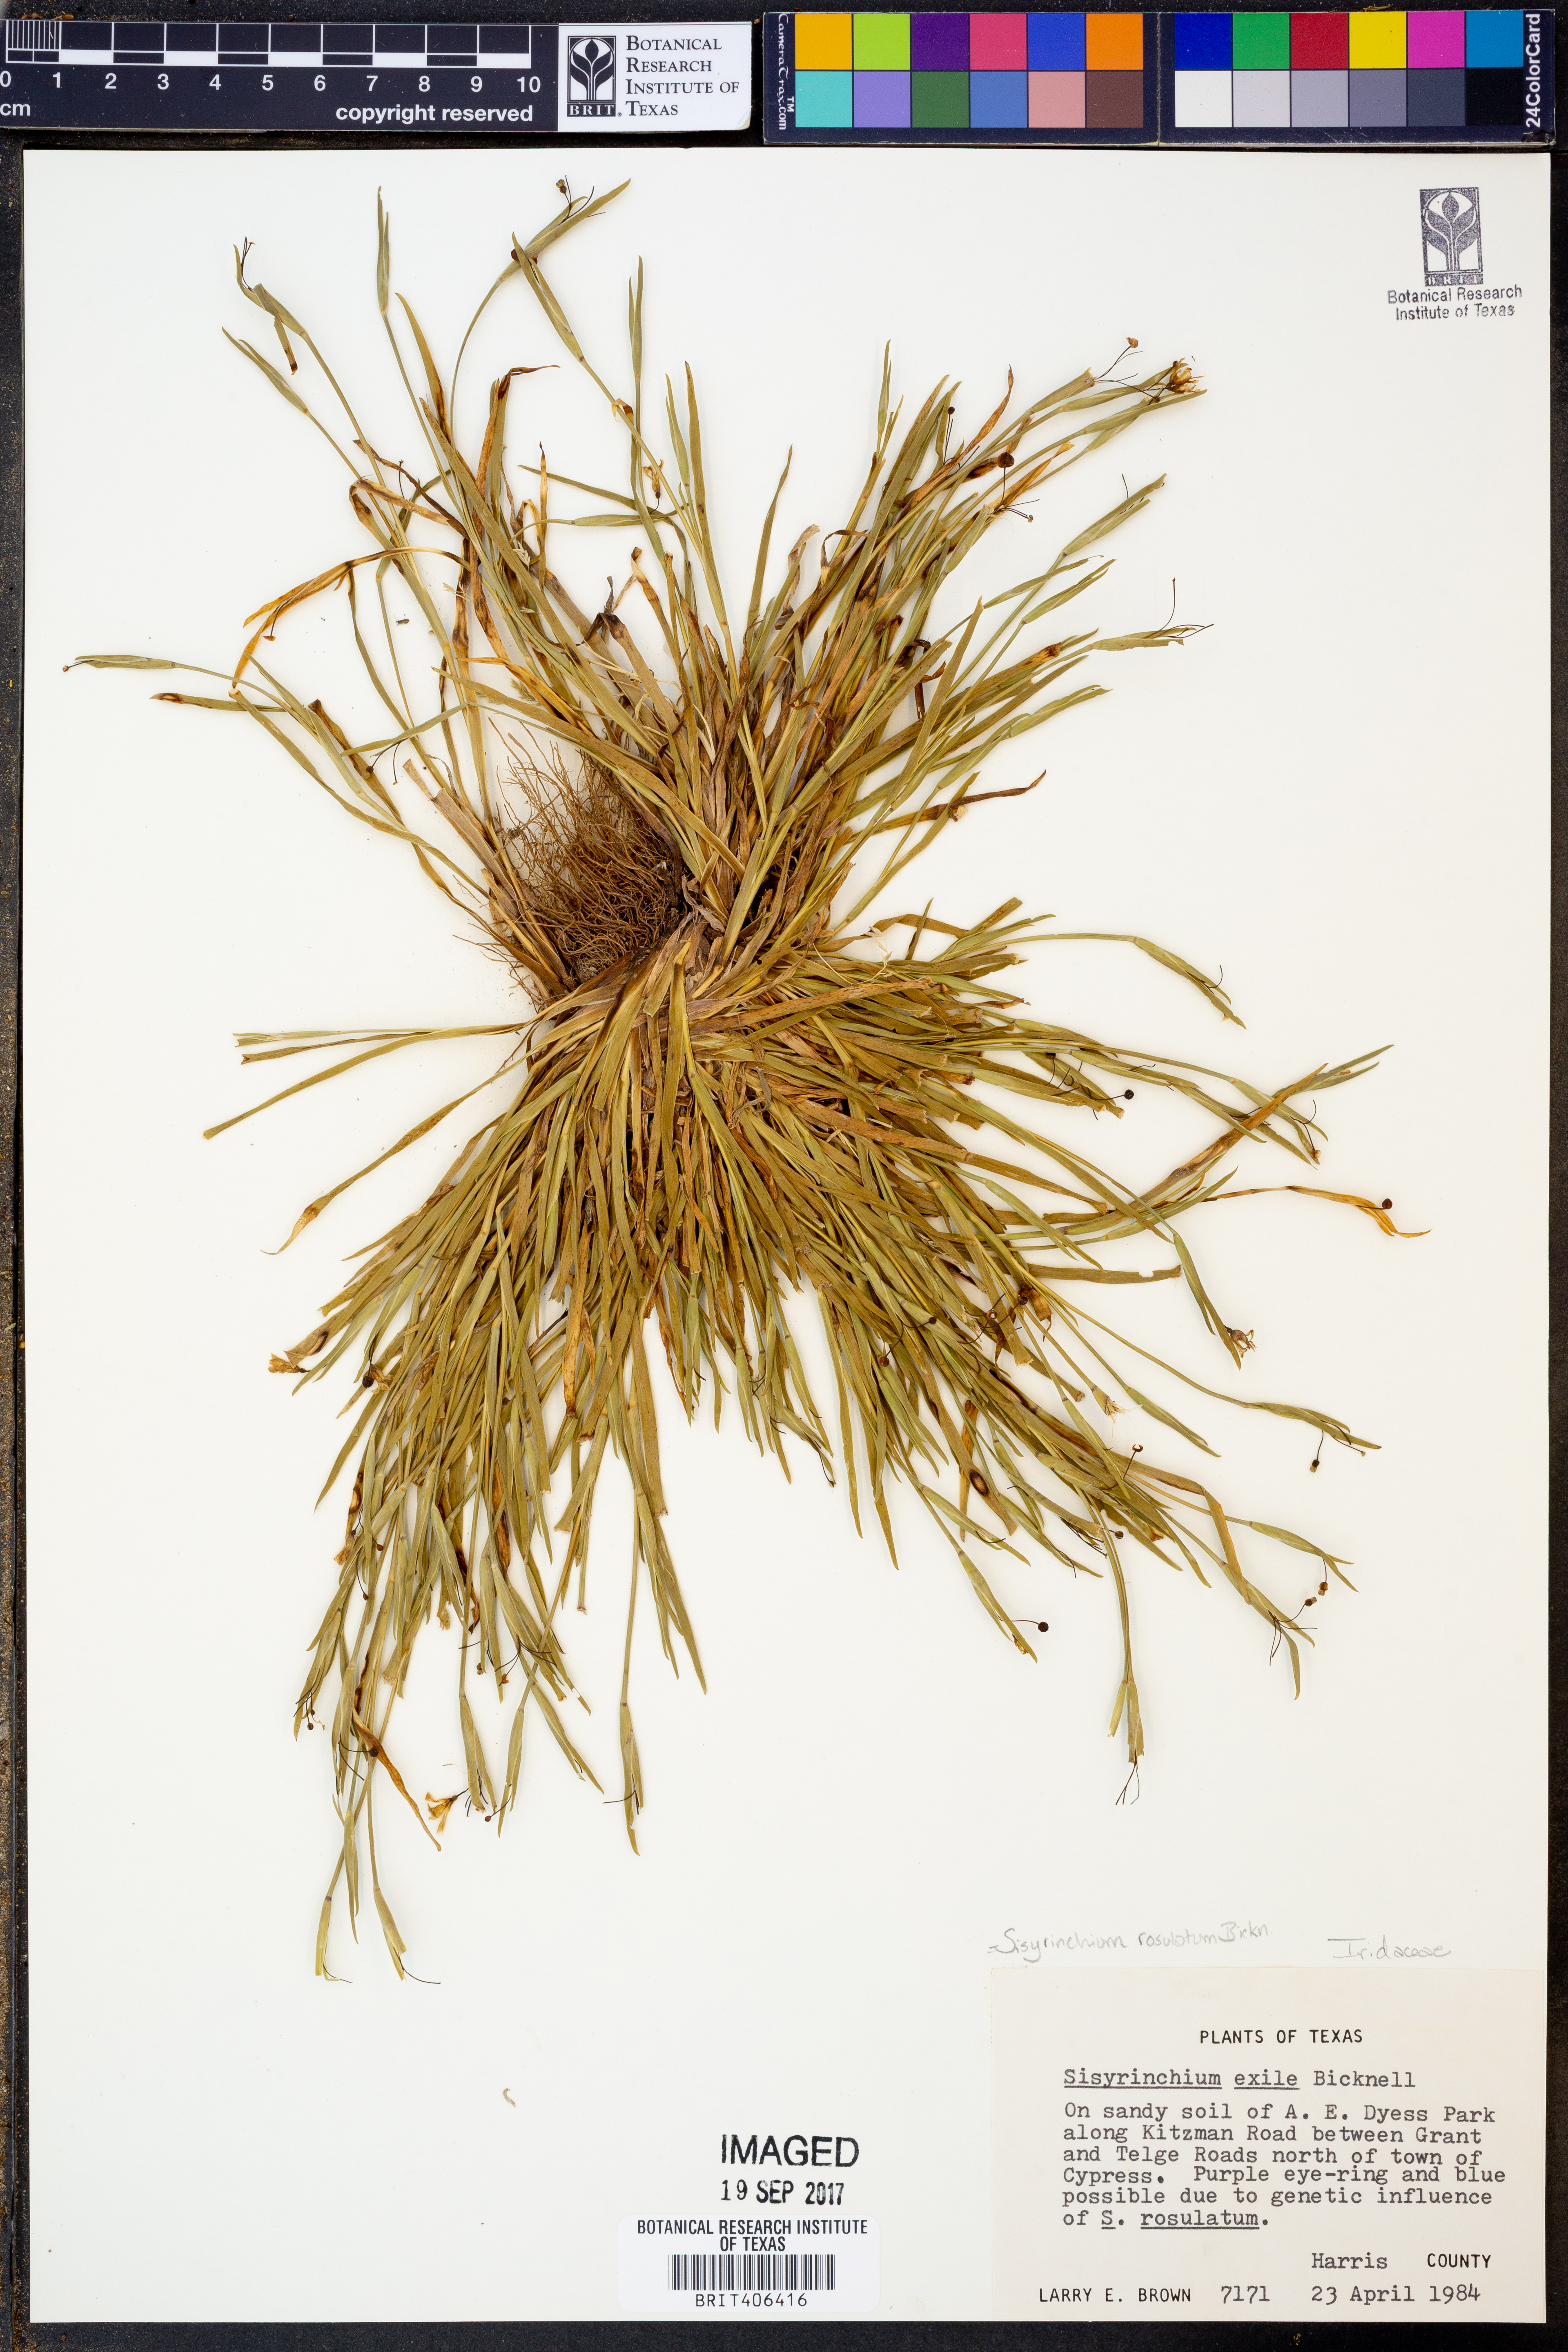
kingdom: Plantae
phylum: Tracheophyta
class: Liliopsida
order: Asparagales
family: Iridaceae
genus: Sisyrinchium
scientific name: Sisyrinchium rosulatum
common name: Annual blue-eyed grass
